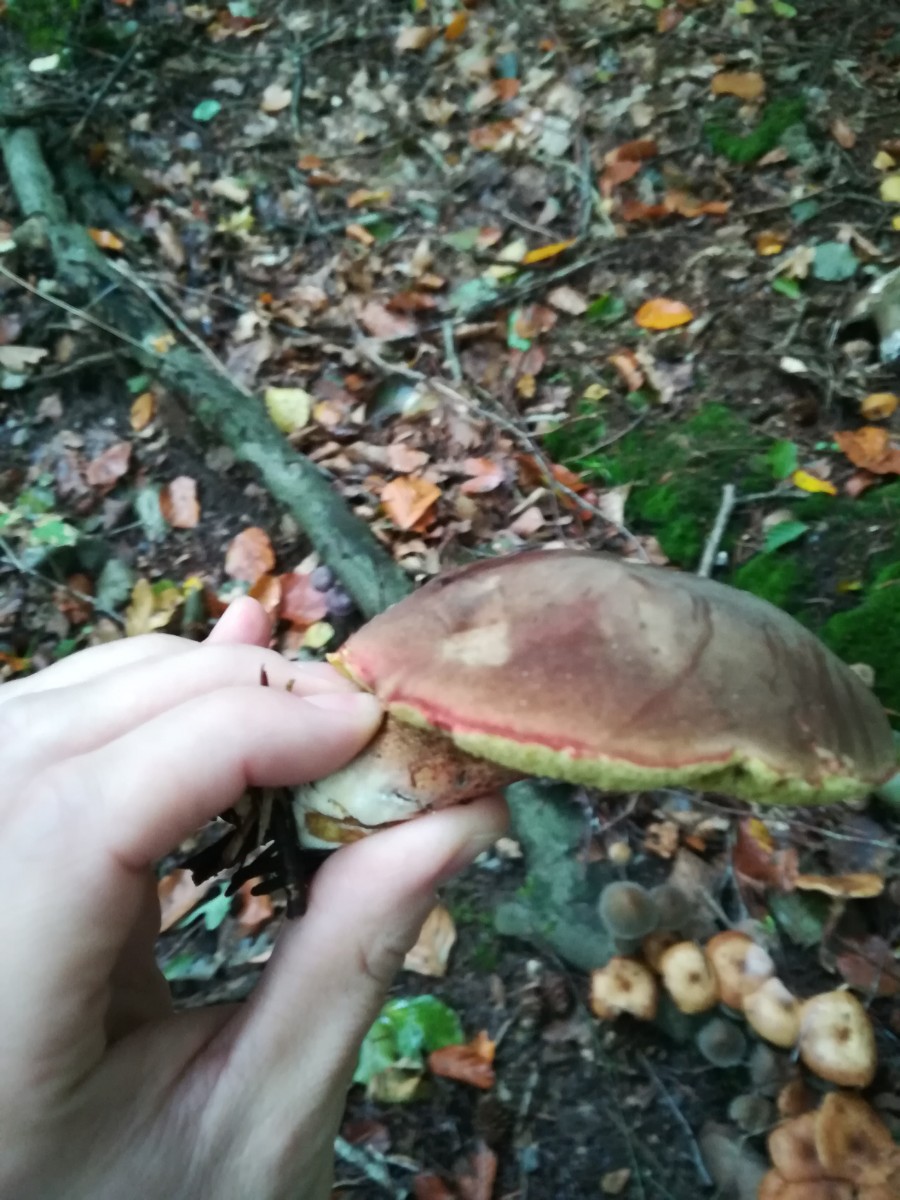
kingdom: Fungi
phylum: Basidiomycota
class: Agaricomycetes
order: Boletales
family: Boletaceae
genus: Xerocomellus
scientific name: Xerocomellus pruinatus
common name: dugget rørhat
